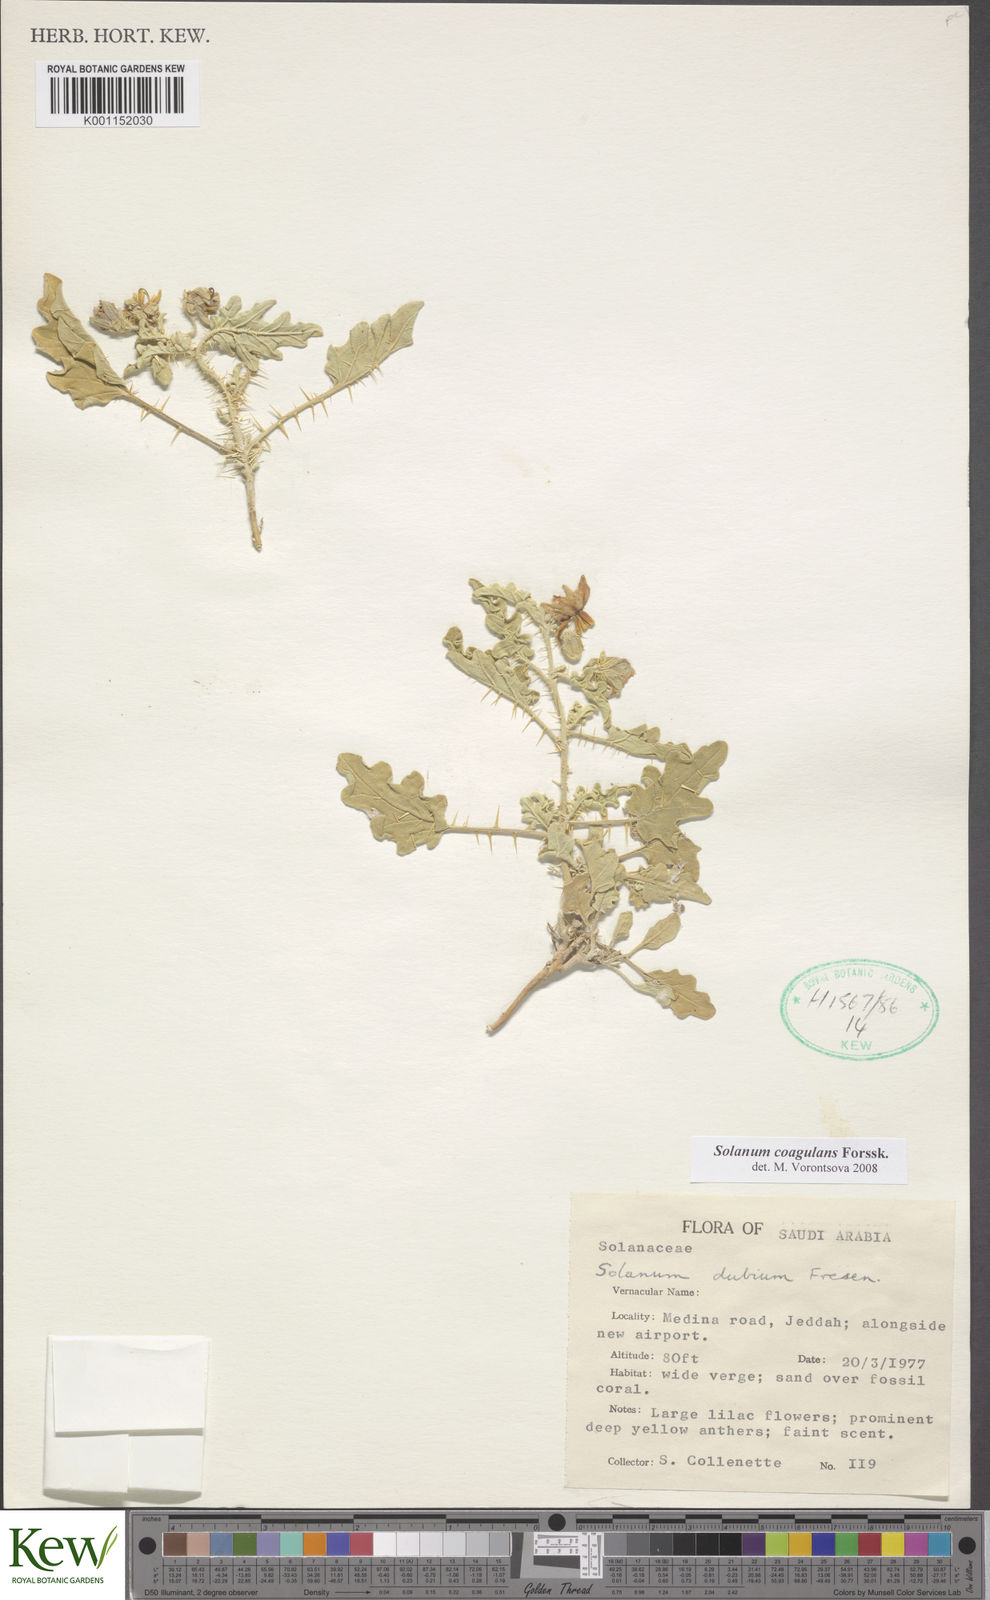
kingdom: Plantae
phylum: Tracheophyta
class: Magnoliopsida
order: Solanales
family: Solanaceae
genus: Solanum
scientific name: Solanum coagulans
